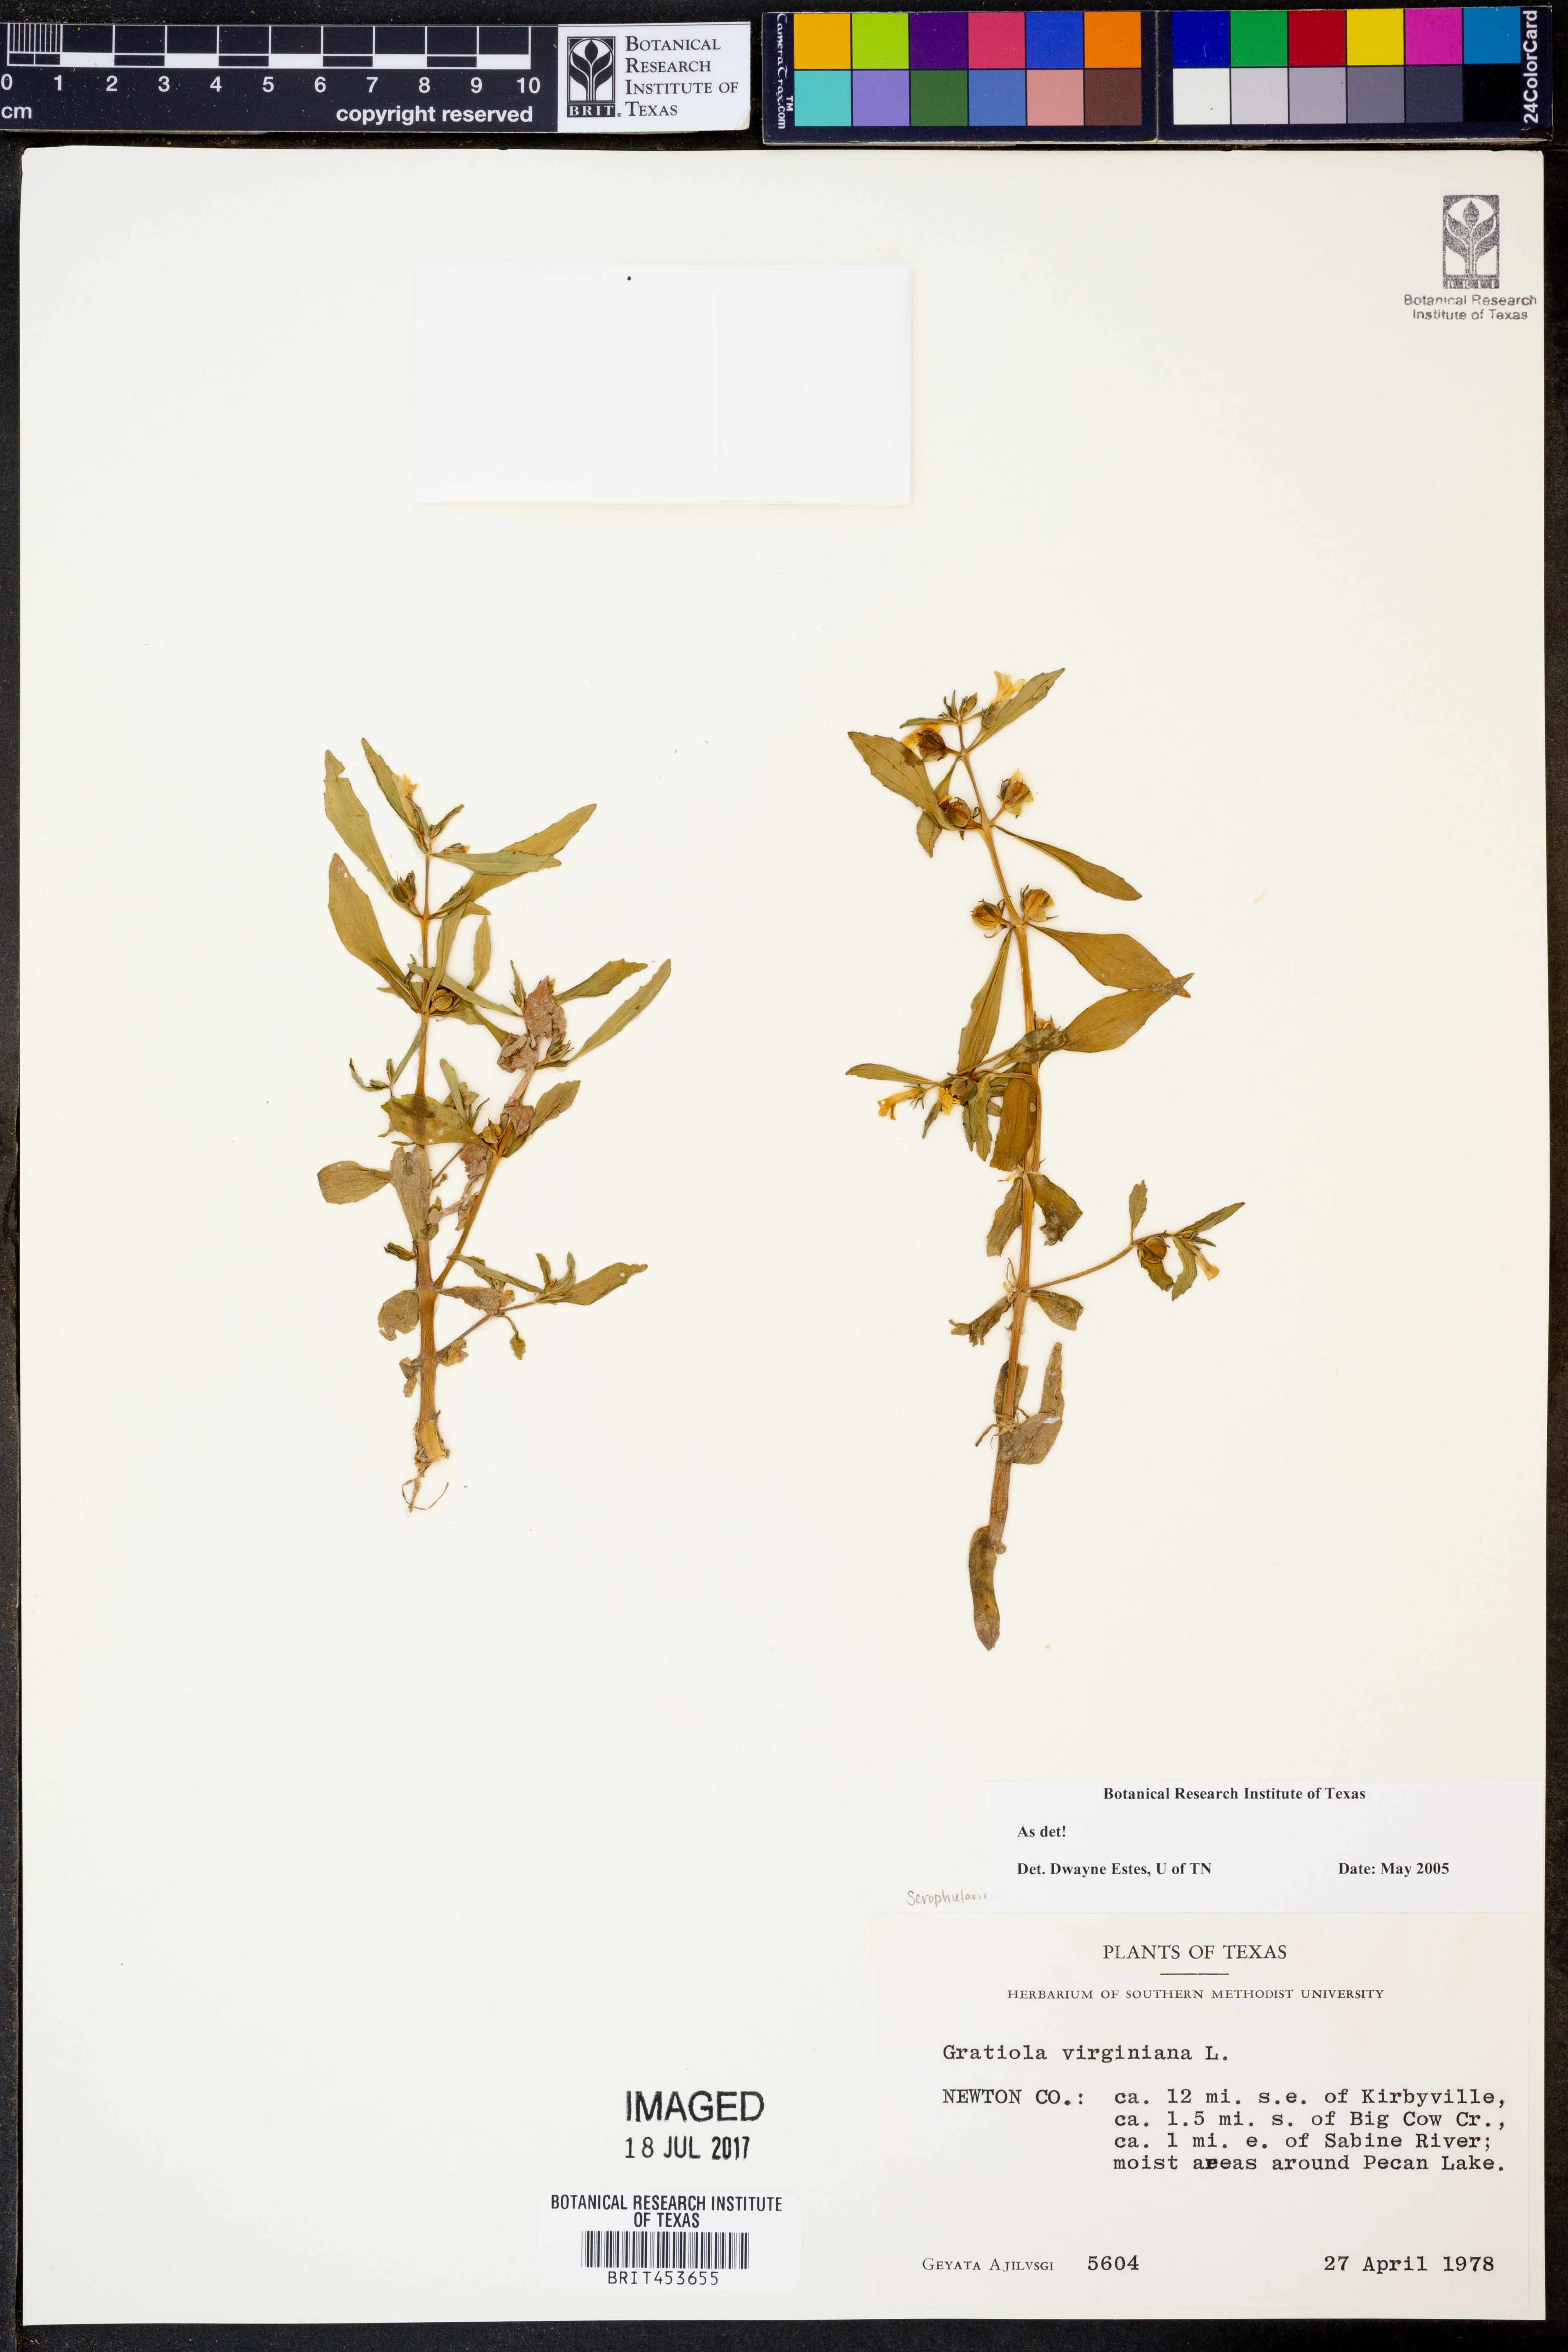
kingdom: Plantae
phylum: Tracheophyta
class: Magnoliopsida
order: Lamiales
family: Plantaginaceae
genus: Gratiola
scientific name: Gratiola virginiana
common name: Roundfruit hedgehyssop
